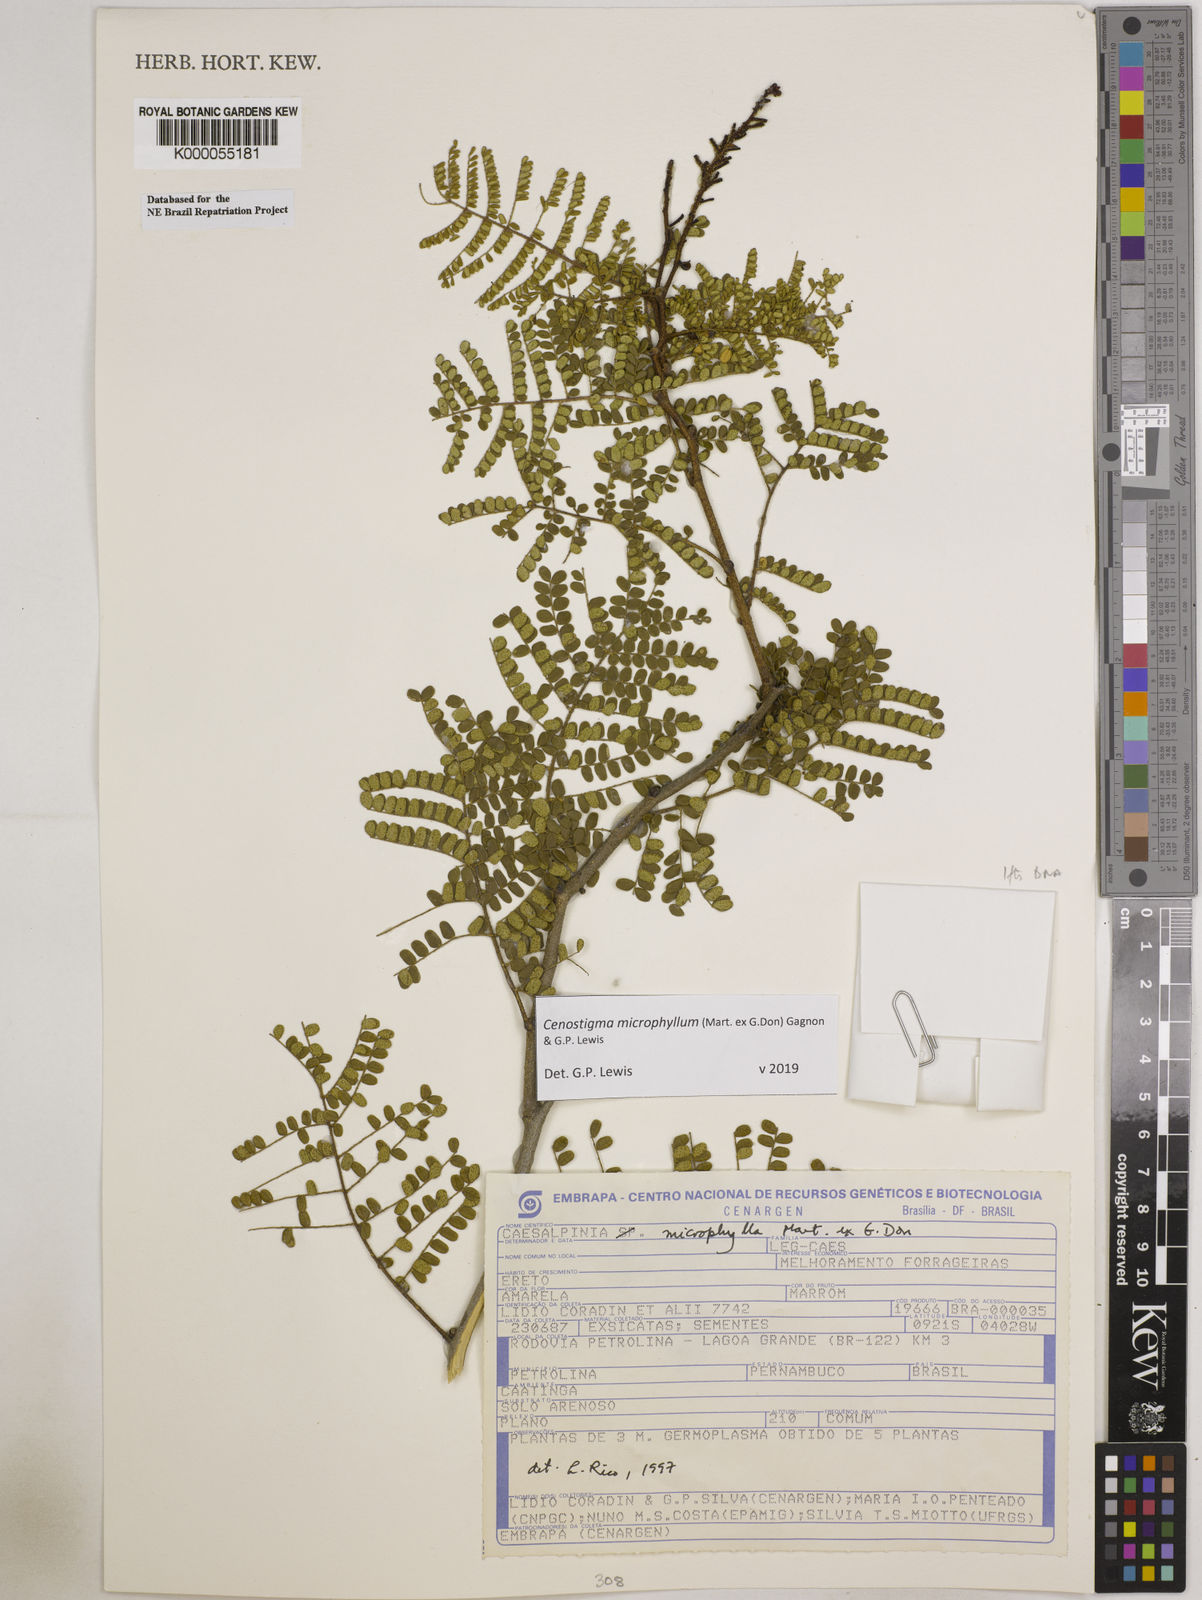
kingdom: Plantae
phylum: Tracheophyta
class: Magnoliopsida
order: Fabales
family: Fabaceae
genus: Cenostigma
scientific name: Cenostigma microphyllum
